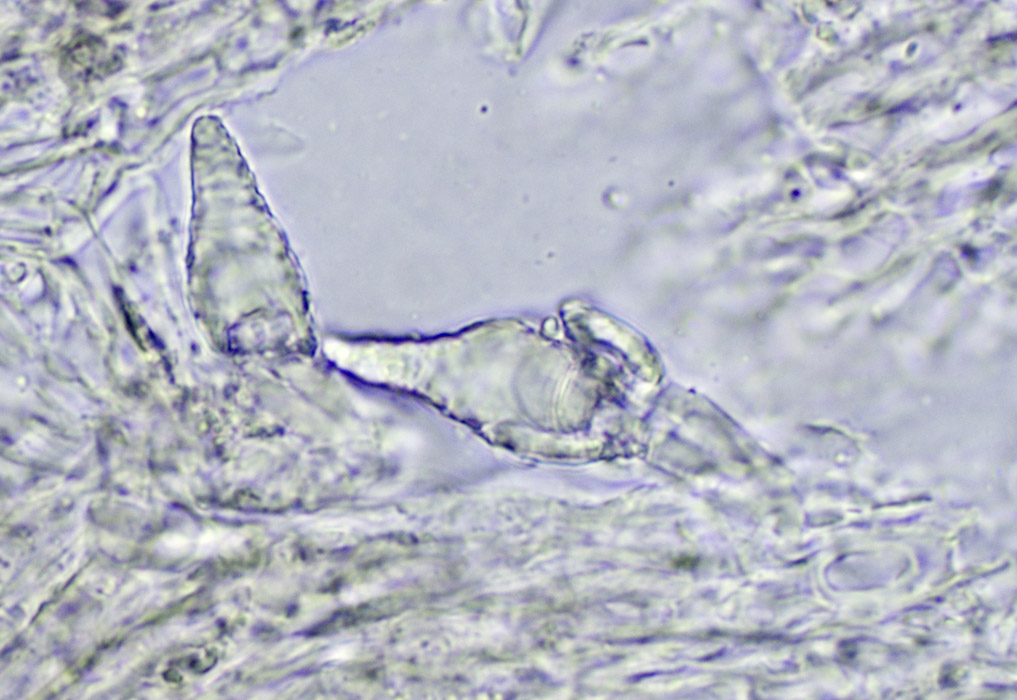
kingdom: Fungi
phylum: Basidiomycota
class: Agaricomycetes
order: Russulales
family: Peniophoraceae
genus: Peniophora
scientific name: Peniophora quercina
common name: ege-voksskind
